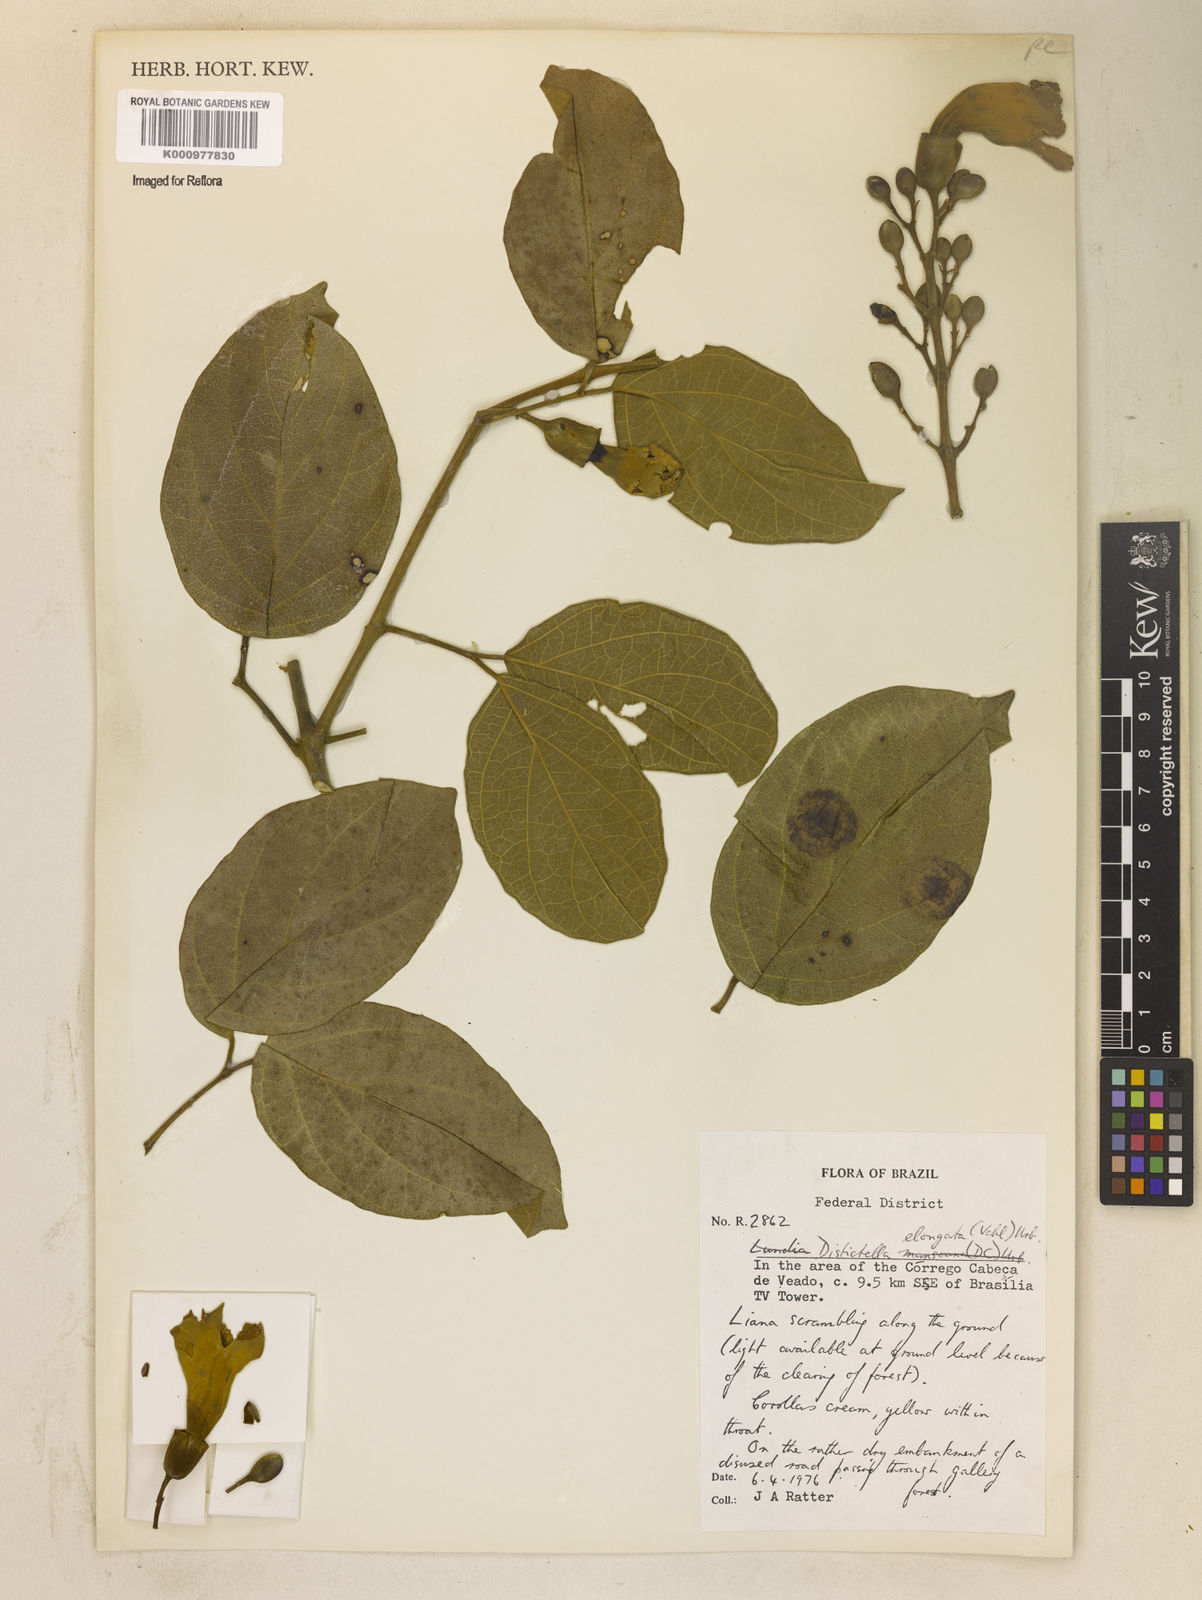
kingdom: Plantae
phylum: Tracheophyta
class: Magnoliopsida
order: Lamiales
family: Bignoniaceae
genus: Amphilophium
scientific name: Amphilophium elongatum
